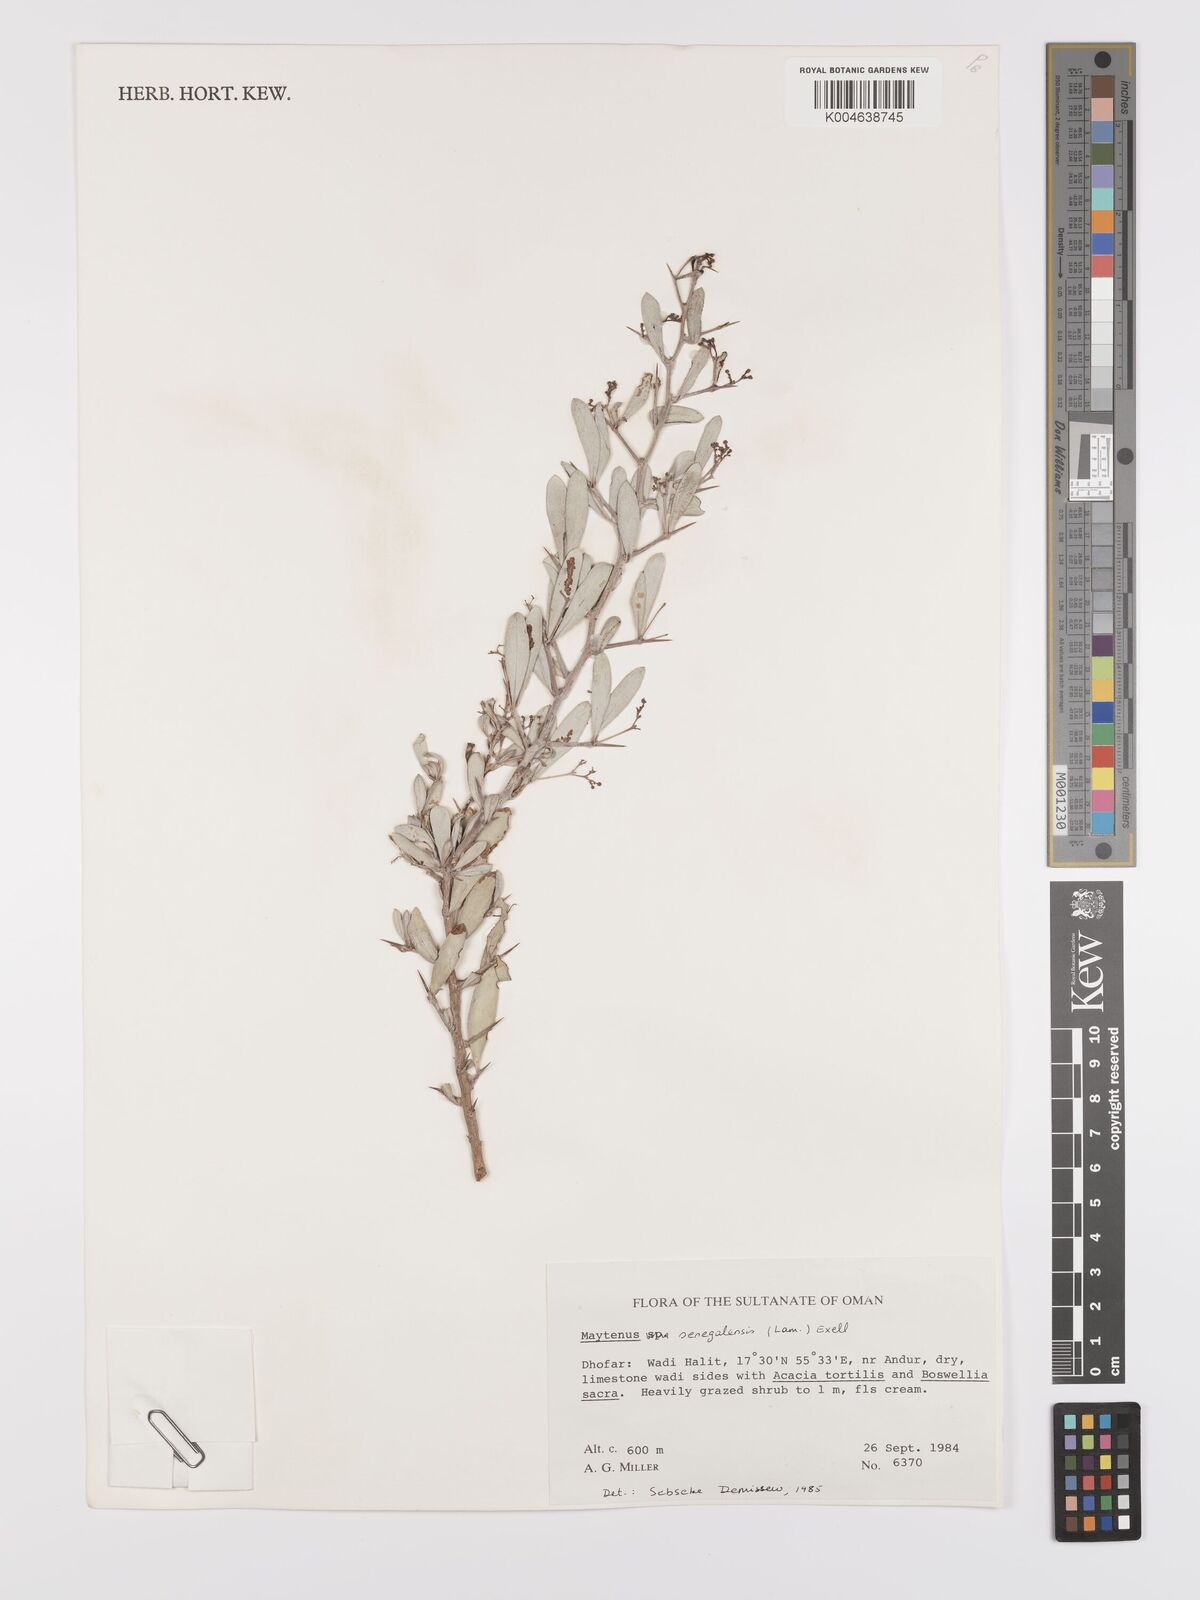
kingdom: Plantae
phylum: Tracheophyta
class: Magnoliopsida
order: Celastrales
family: Celastraceae
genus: Gymnosporia
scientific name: Gymnosporia senegalensis
